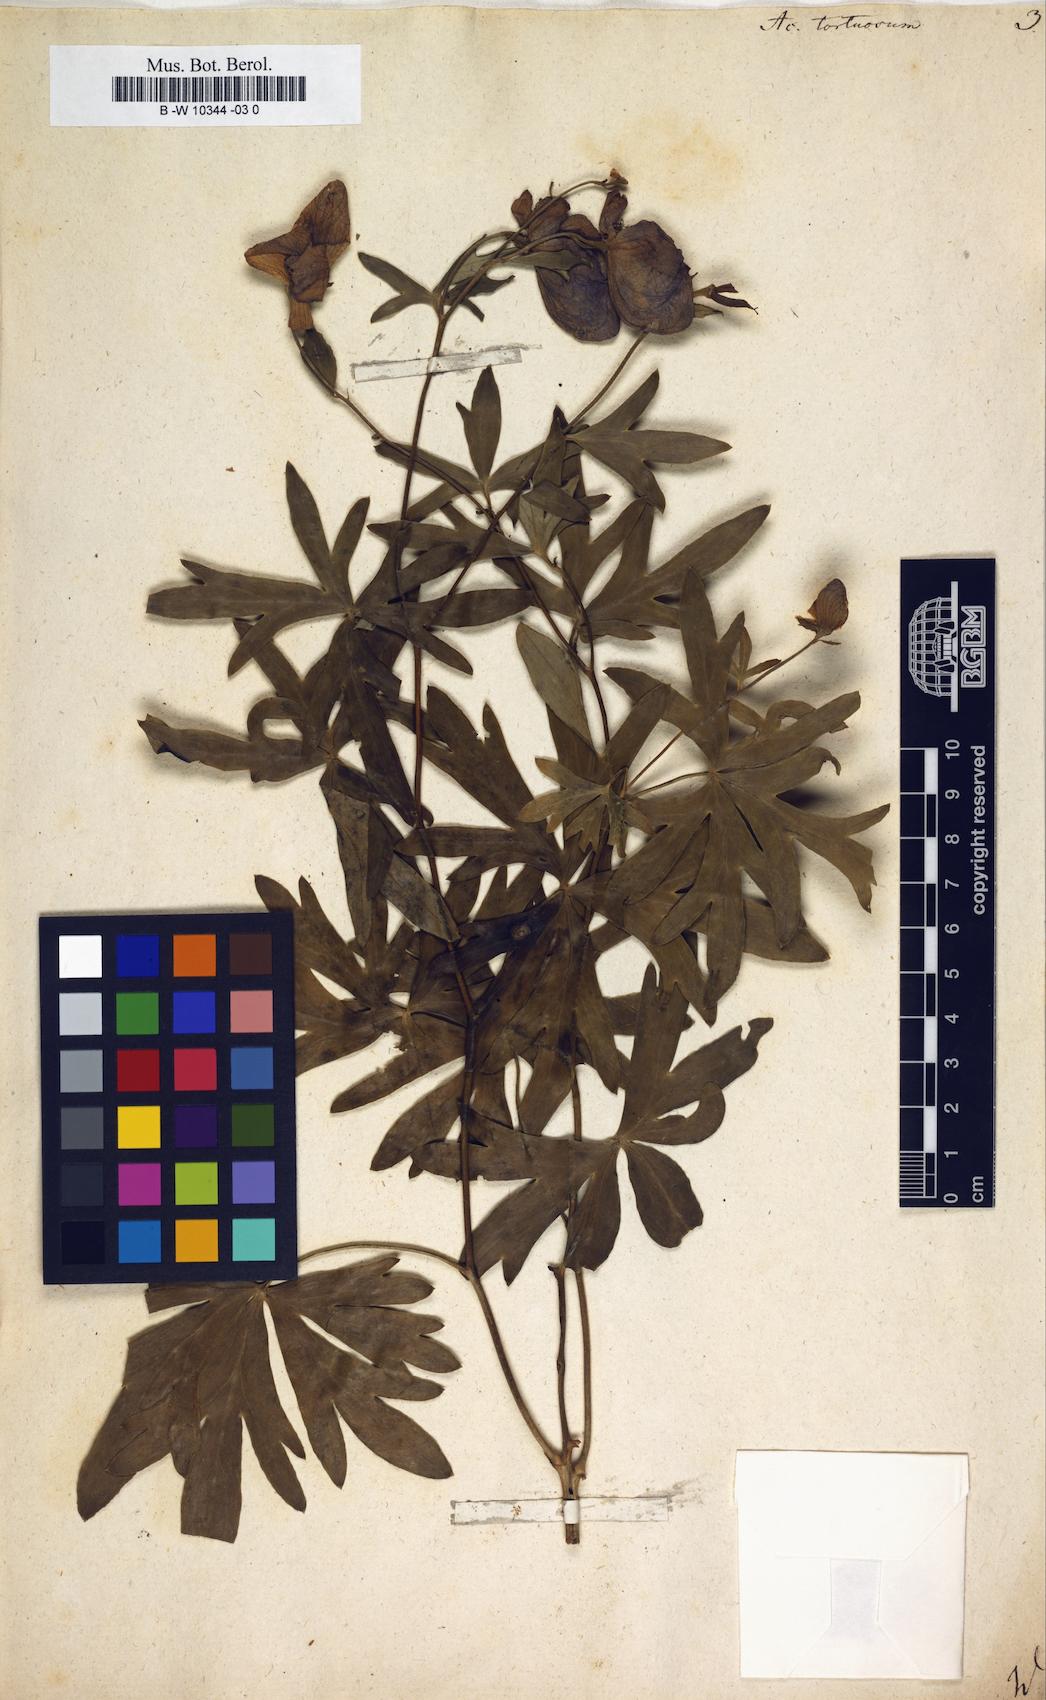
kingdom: Plantae
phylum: Tracheophyta
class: Magnoliopsida
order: Ranunculales
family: Ranunculaceae
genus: Aconitum
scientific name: Aconitum volubile
